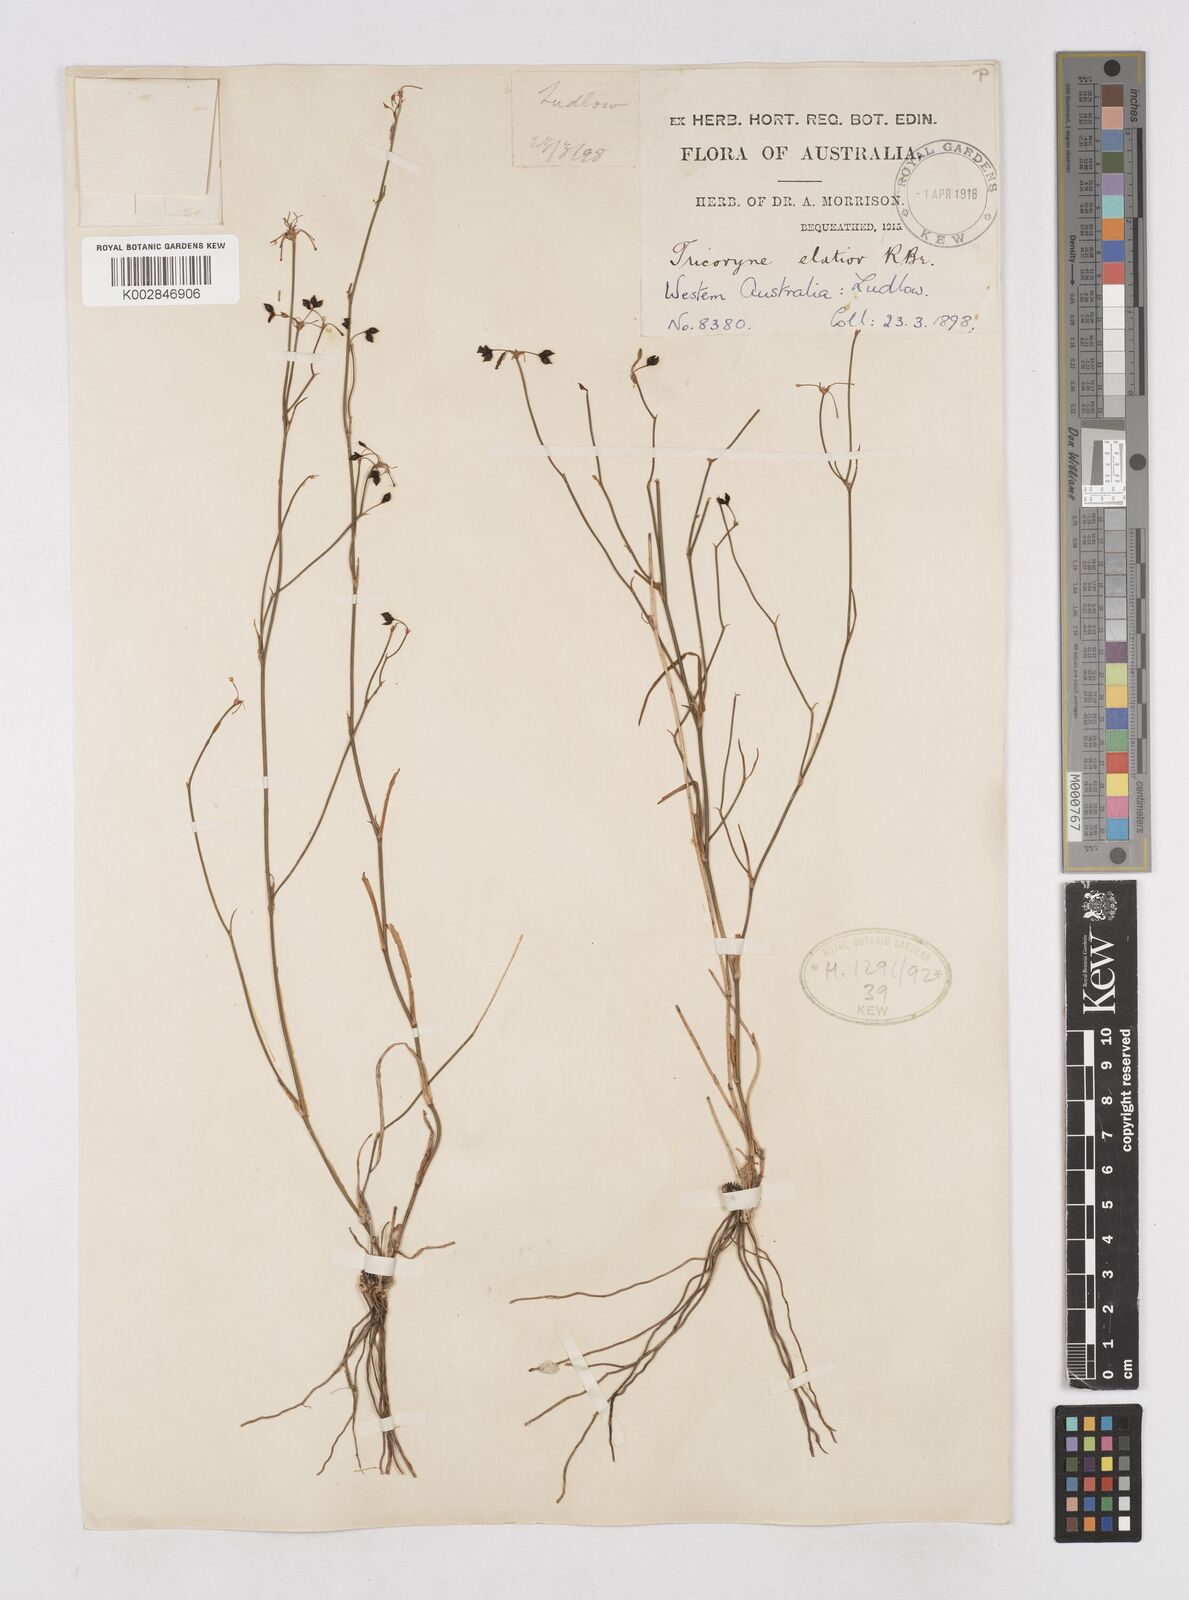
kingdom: Plantae
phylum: Tracheophyta
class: Liliopsida
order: Asparagales
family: Asphodelaceae
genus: Tricoryne
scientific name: Tricoryne elatior
